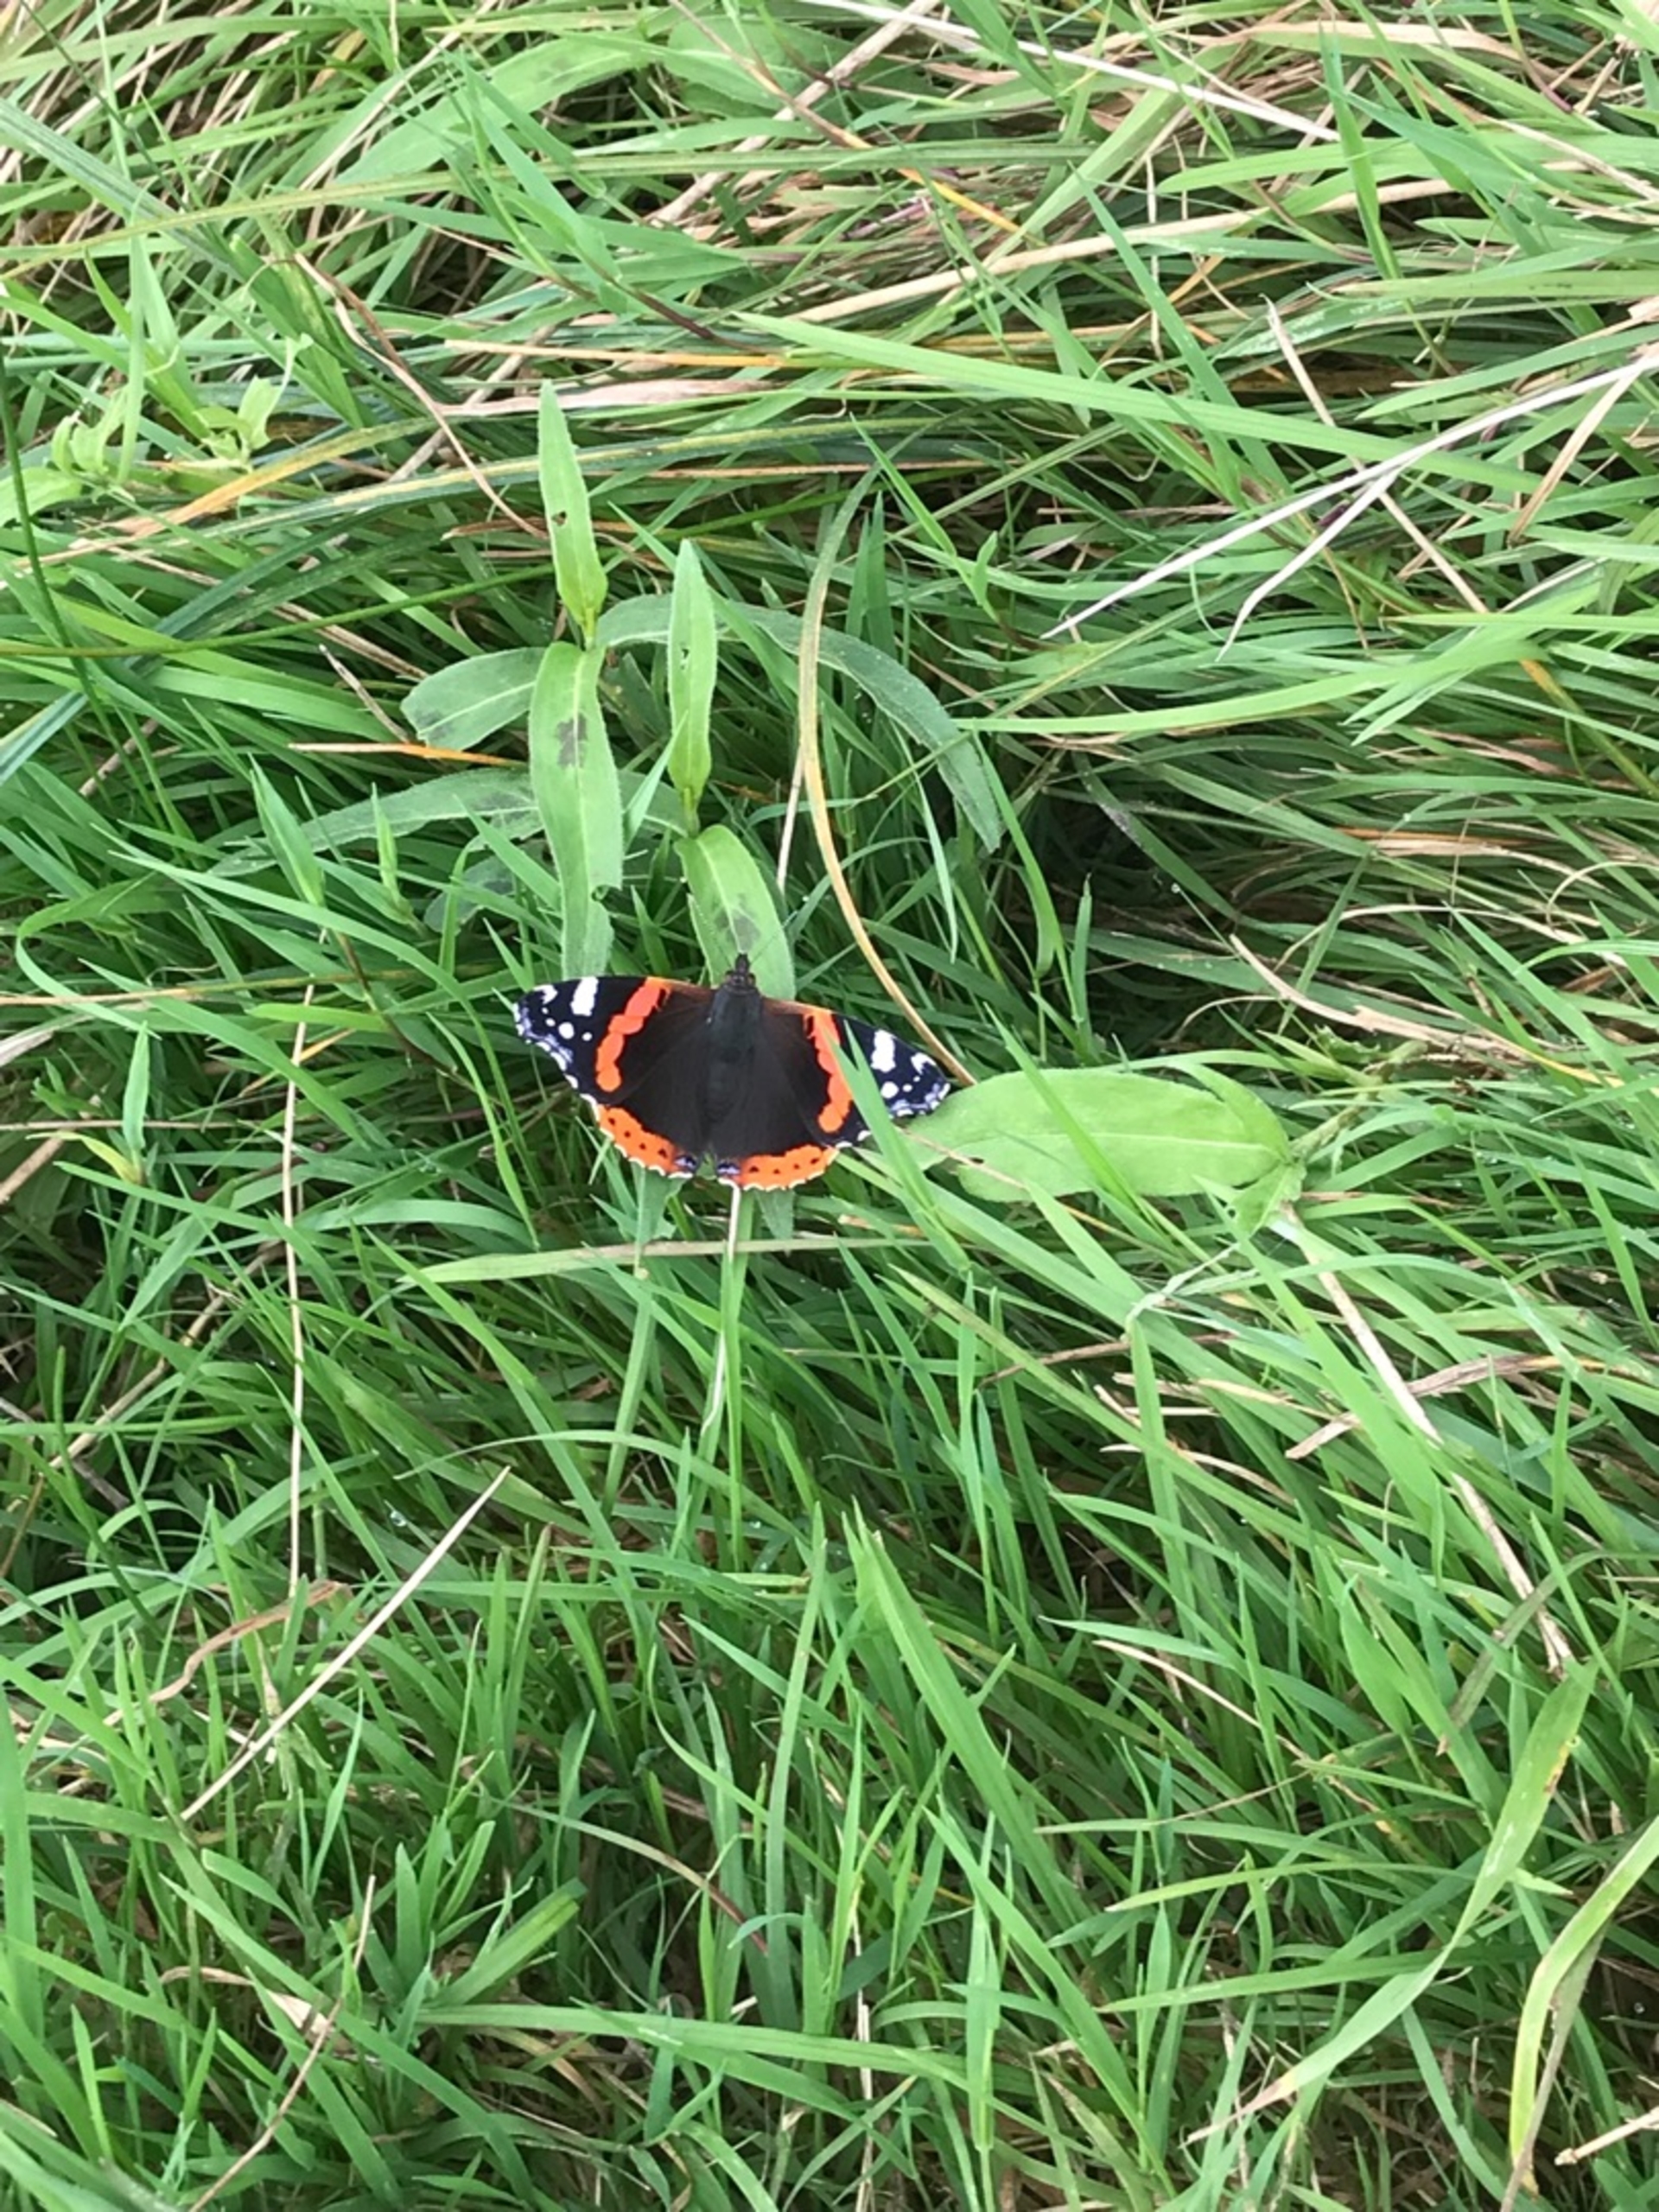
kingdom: Animalia
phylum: Arthropoda
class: Insecta
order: Lepidoptera
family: Nymphalidae
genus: Vanessa
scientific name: Vanessa atalanta
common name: Admiral
